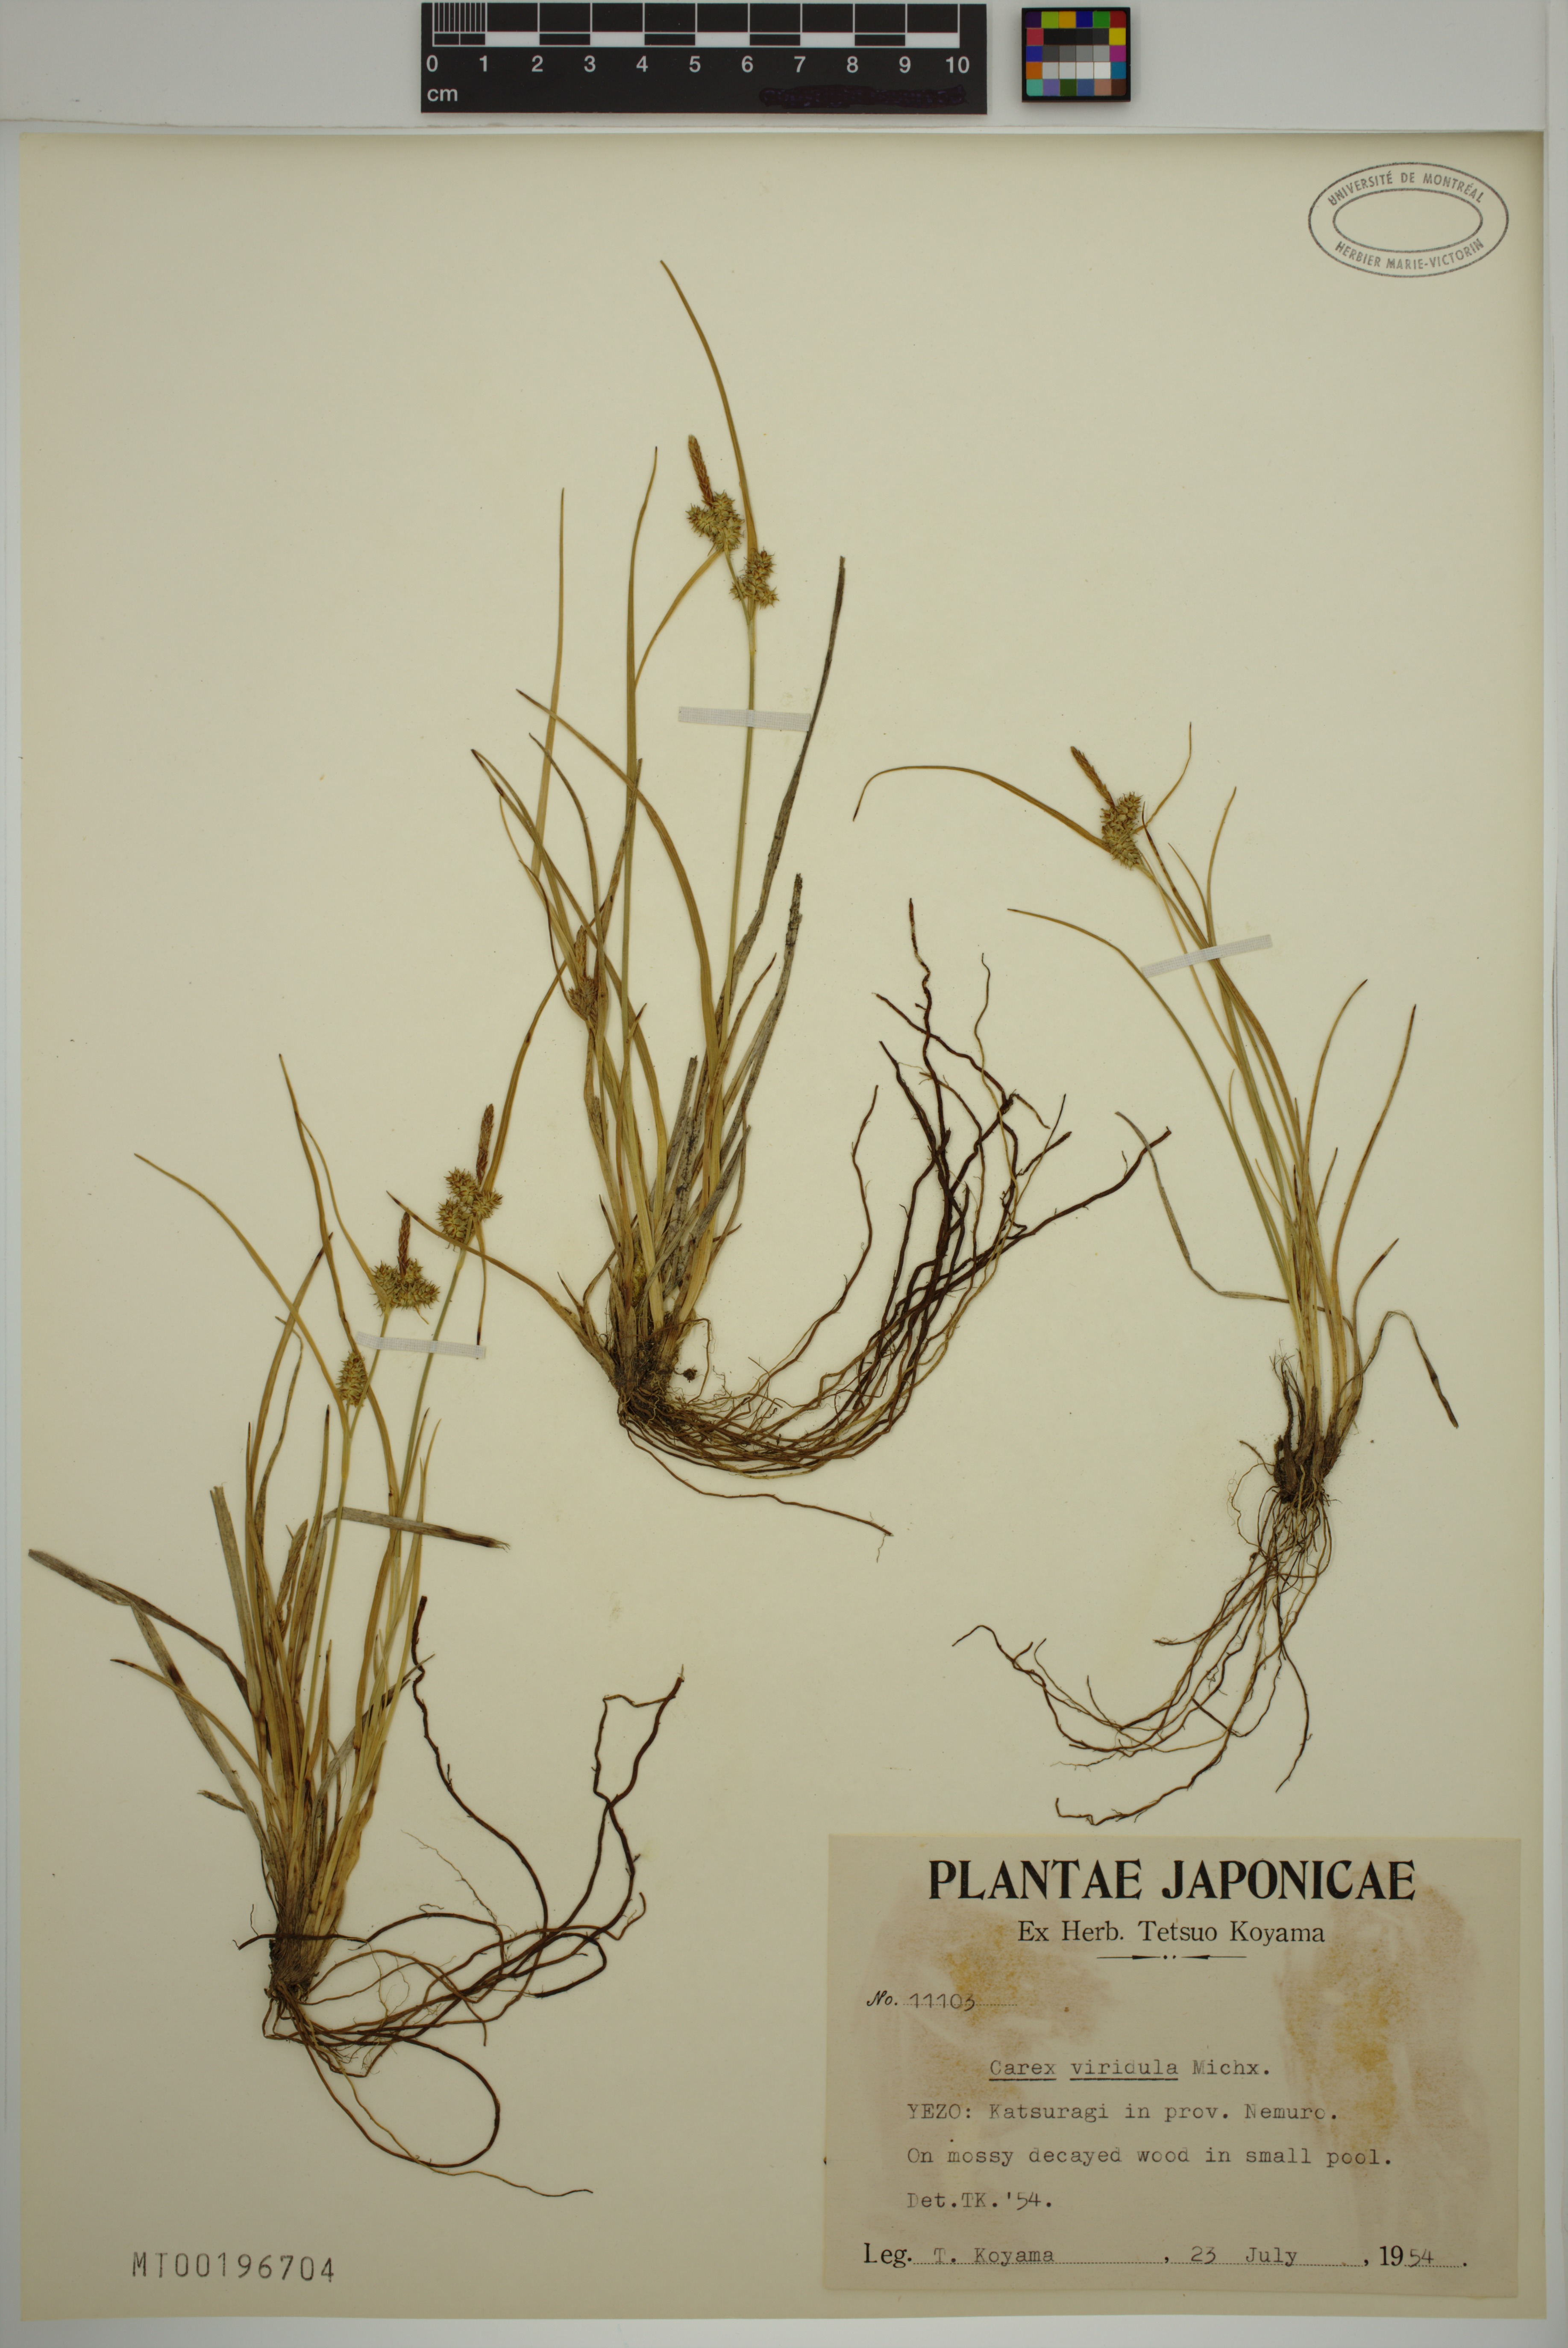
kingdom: Plantae
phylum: Tracheophyta
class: Liliopsida
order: Poales
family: Cyperaceae
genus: Carex
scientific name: Carex oederi
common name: Common & small-fruited yellow-sedge
